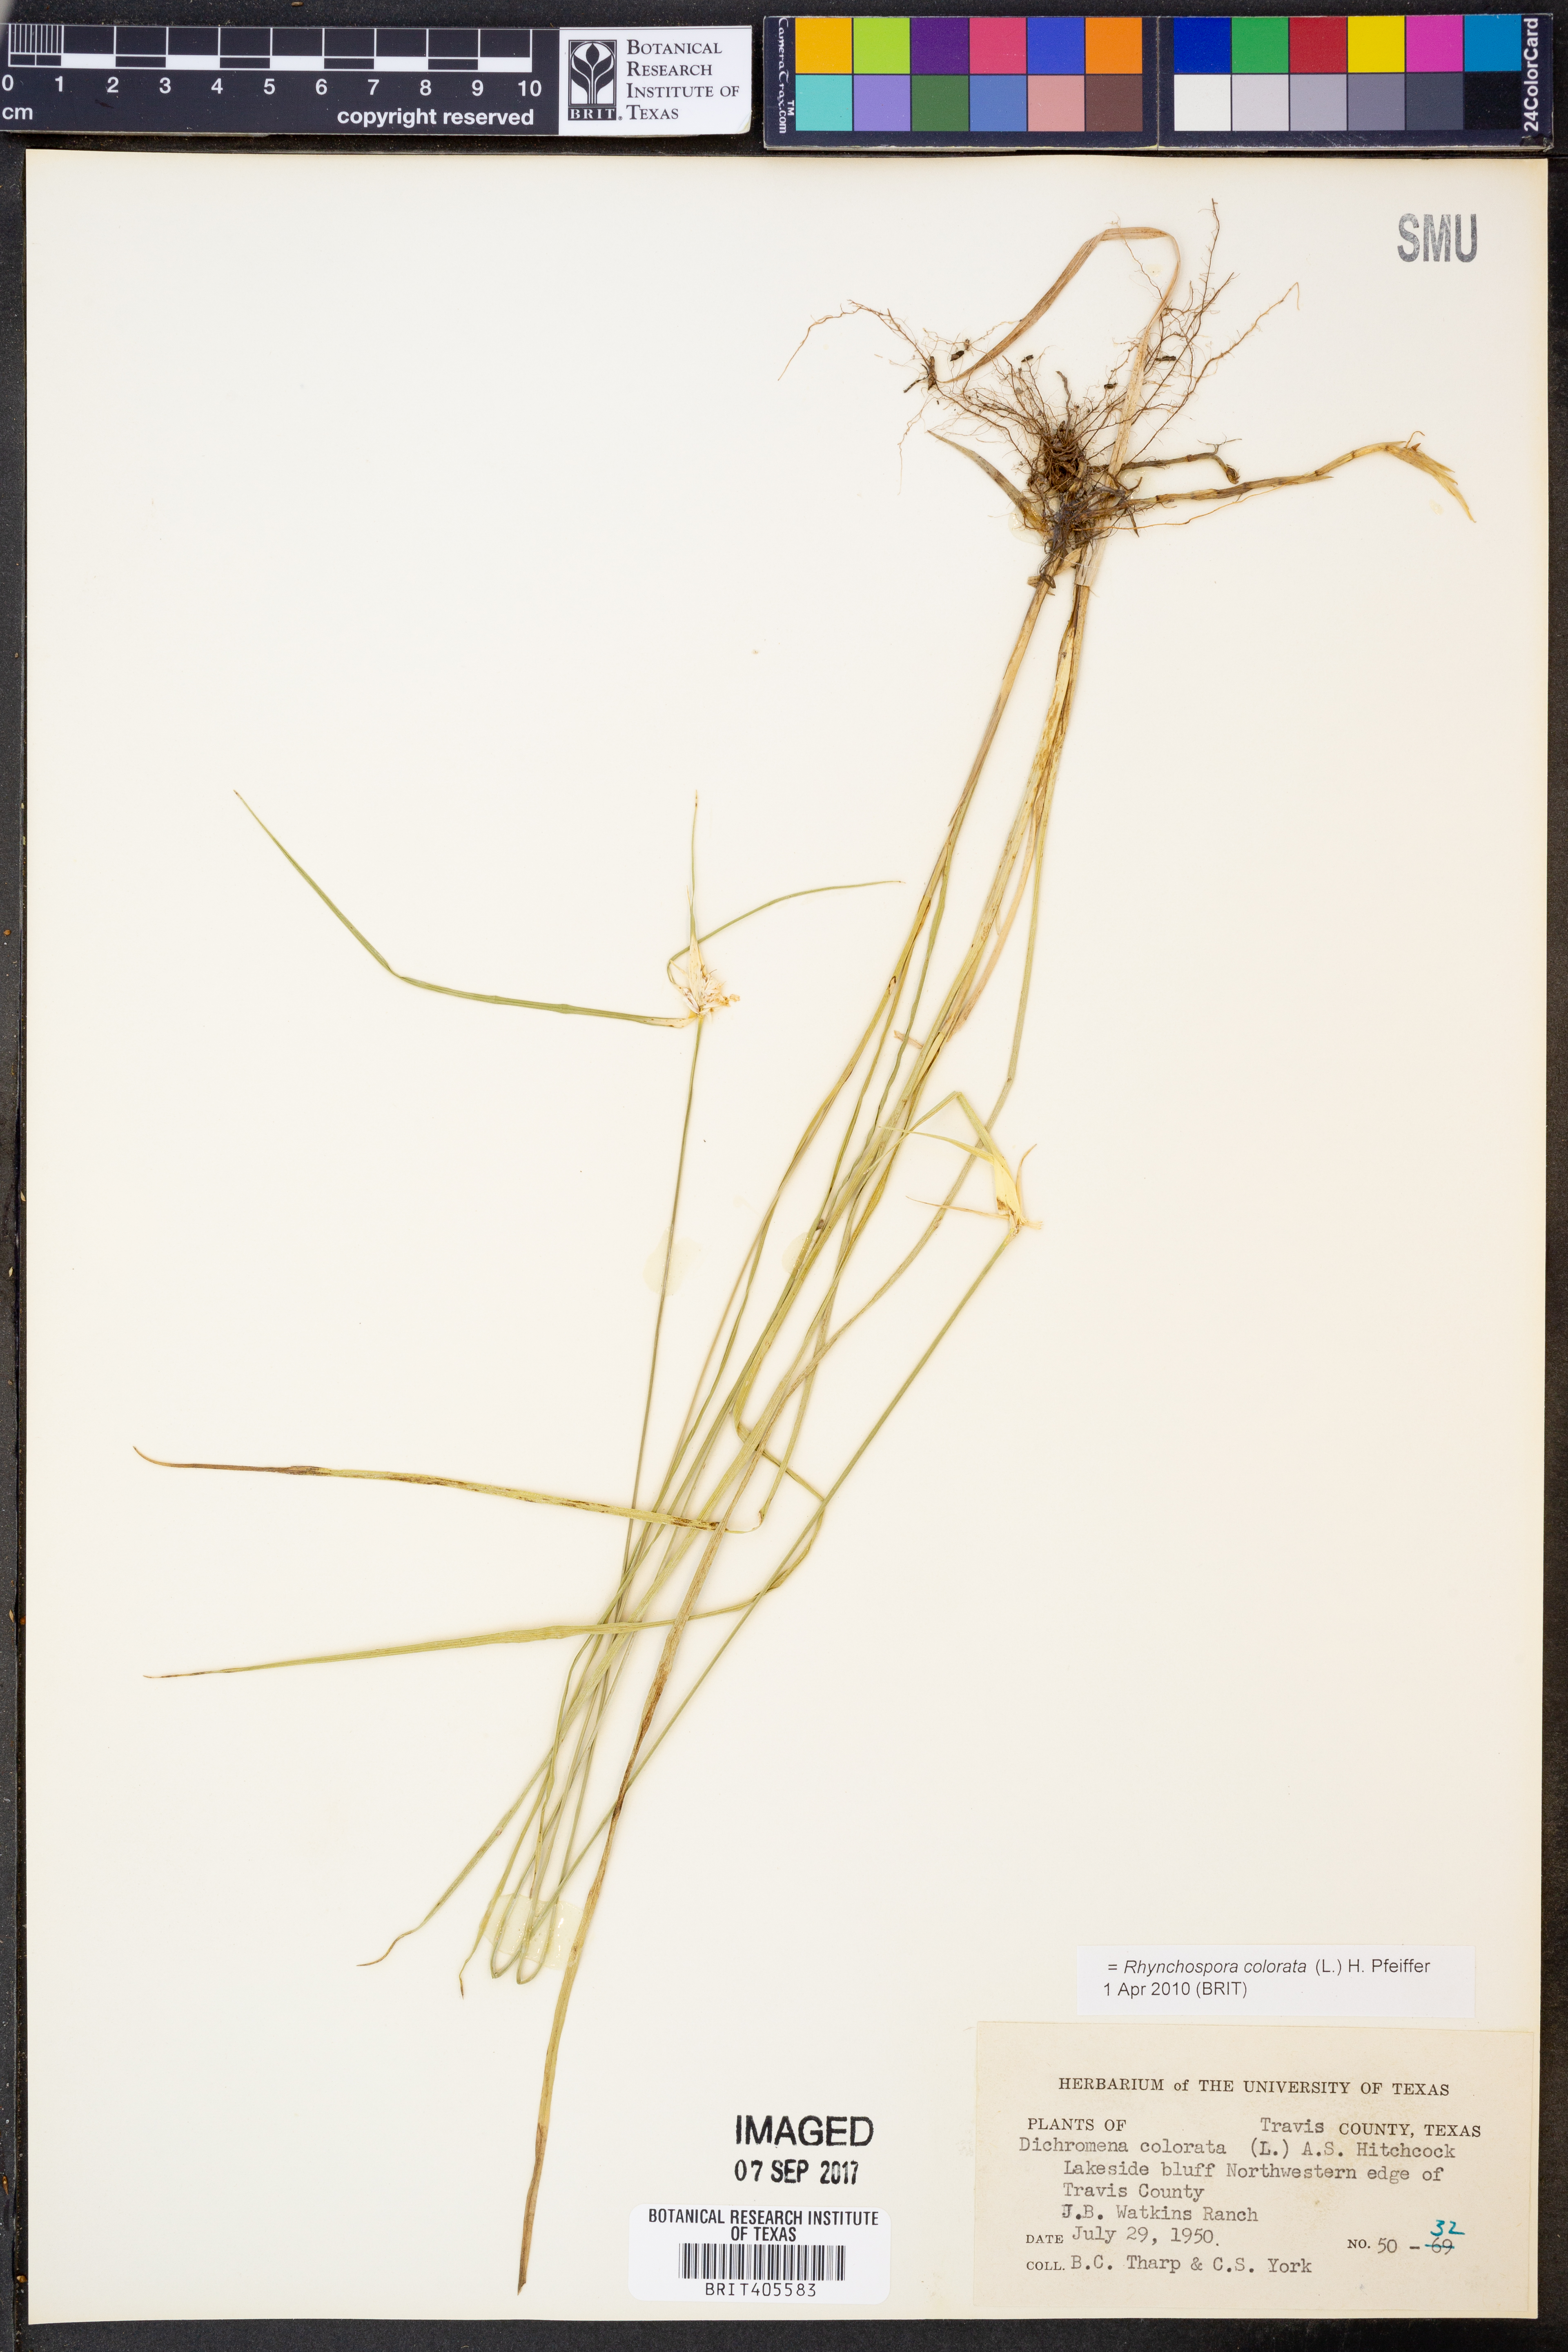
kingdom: Plantae
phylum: Tracheophyta
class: Liliopsida
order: Poales
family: Cyperaceae
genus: Rhynchospora
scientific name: Rhynchospora colorata
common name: Star sedge
